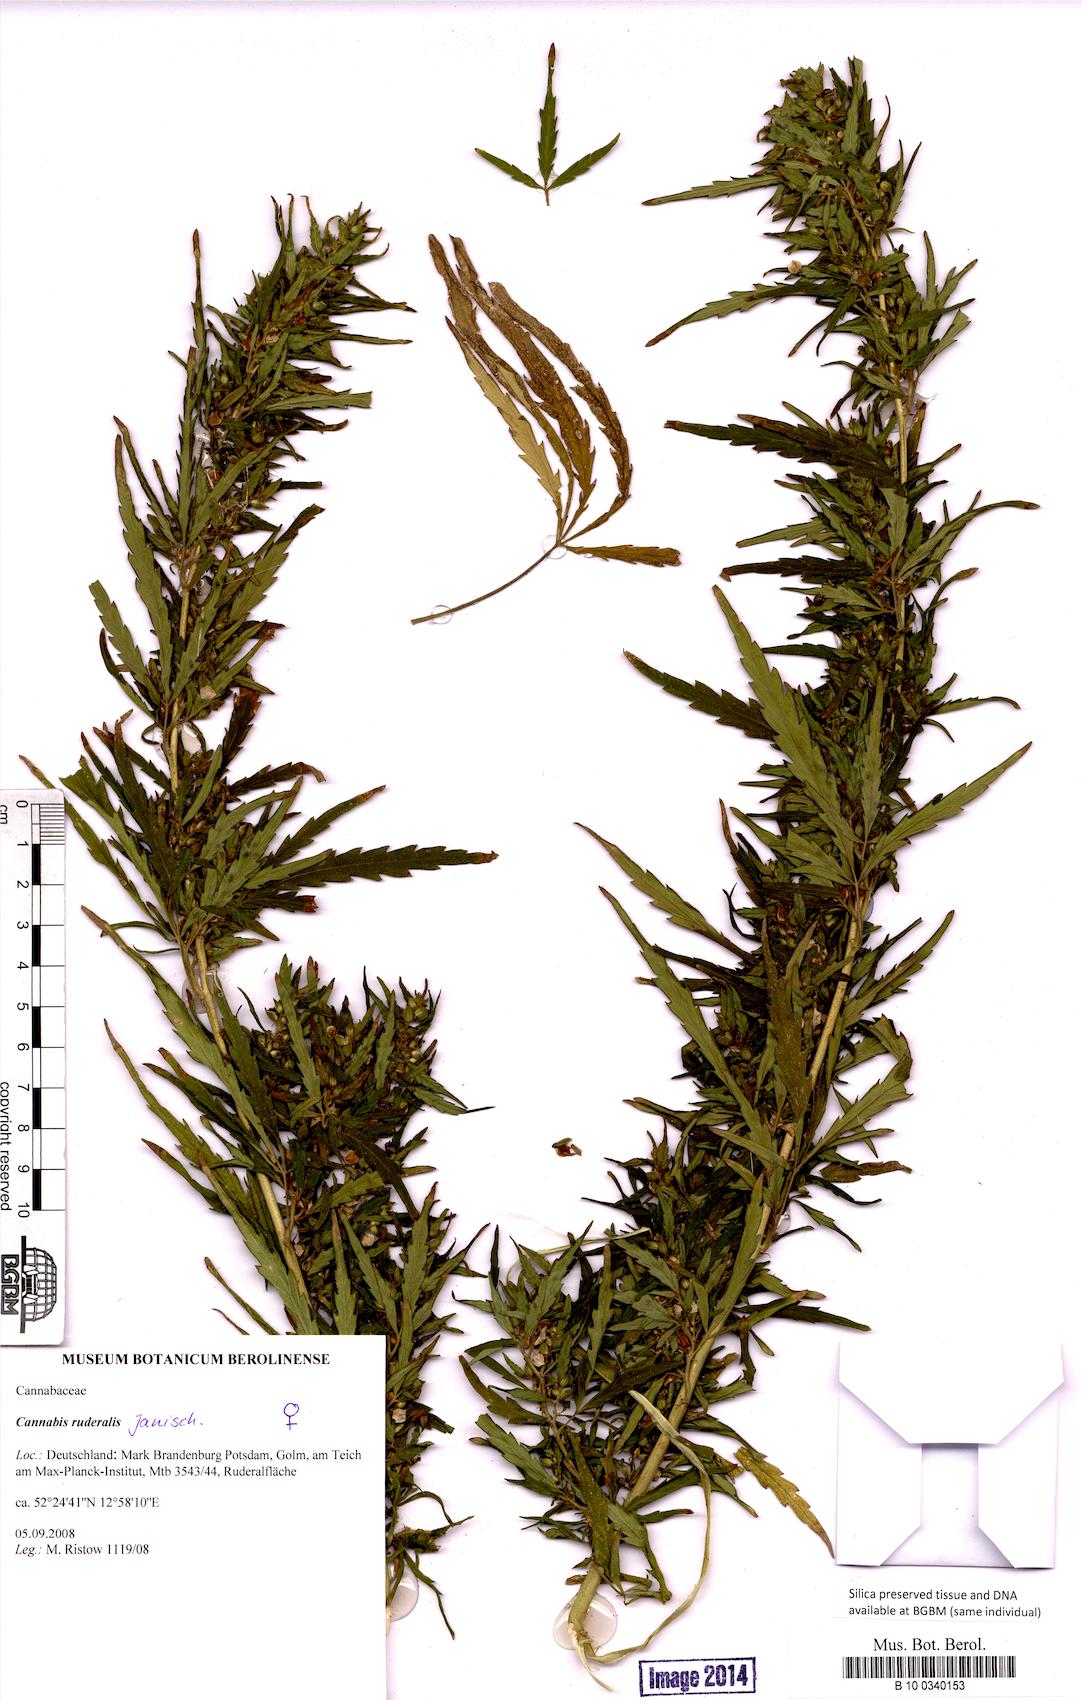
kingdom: Plantae
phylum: Tracheophyta
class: Magnoliopsida
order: Rosales
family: Cannabaceae
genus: Cannabis
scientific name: Cannabis sativa
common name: Hemp
